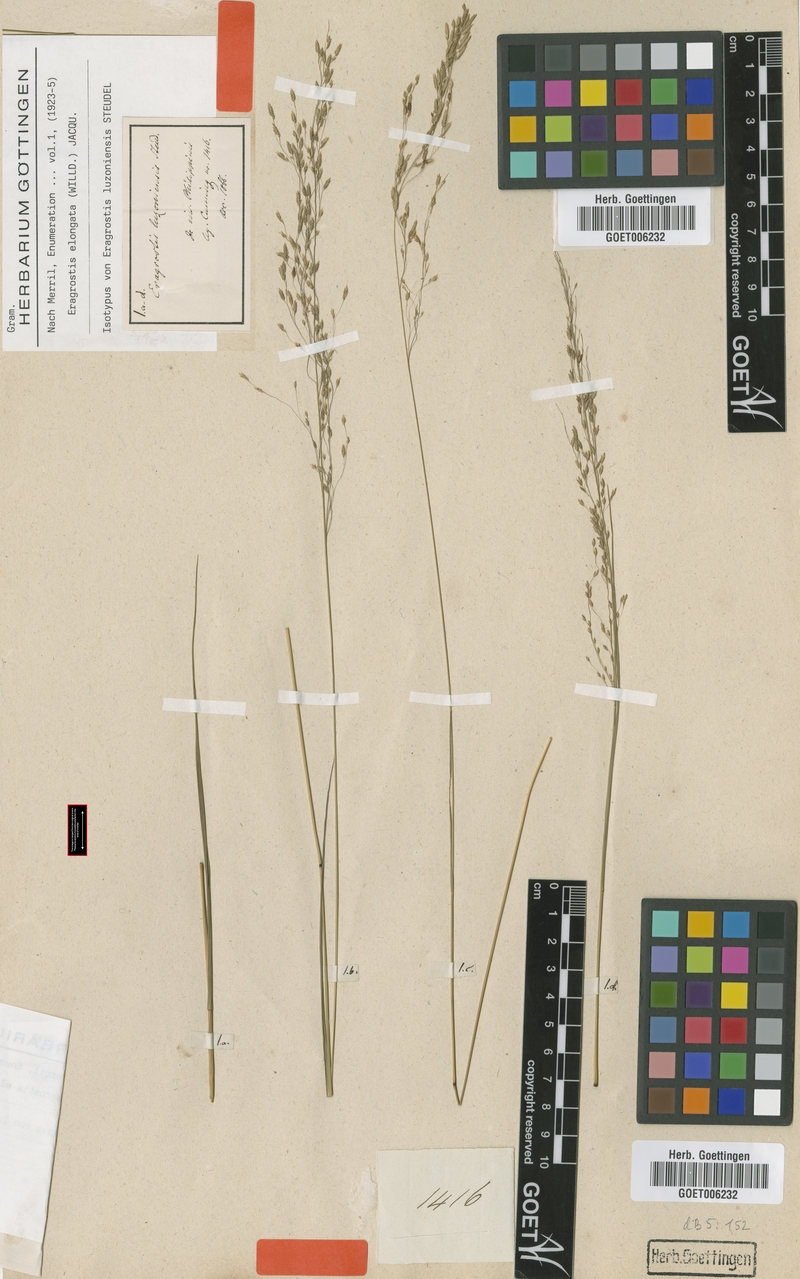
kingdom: Plantae
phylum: Tracheophyta
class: Liliopsida
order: Poales
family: Poaceae
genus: Eragrostis
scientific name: Eragrostis elongata
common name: Long lovegrass
